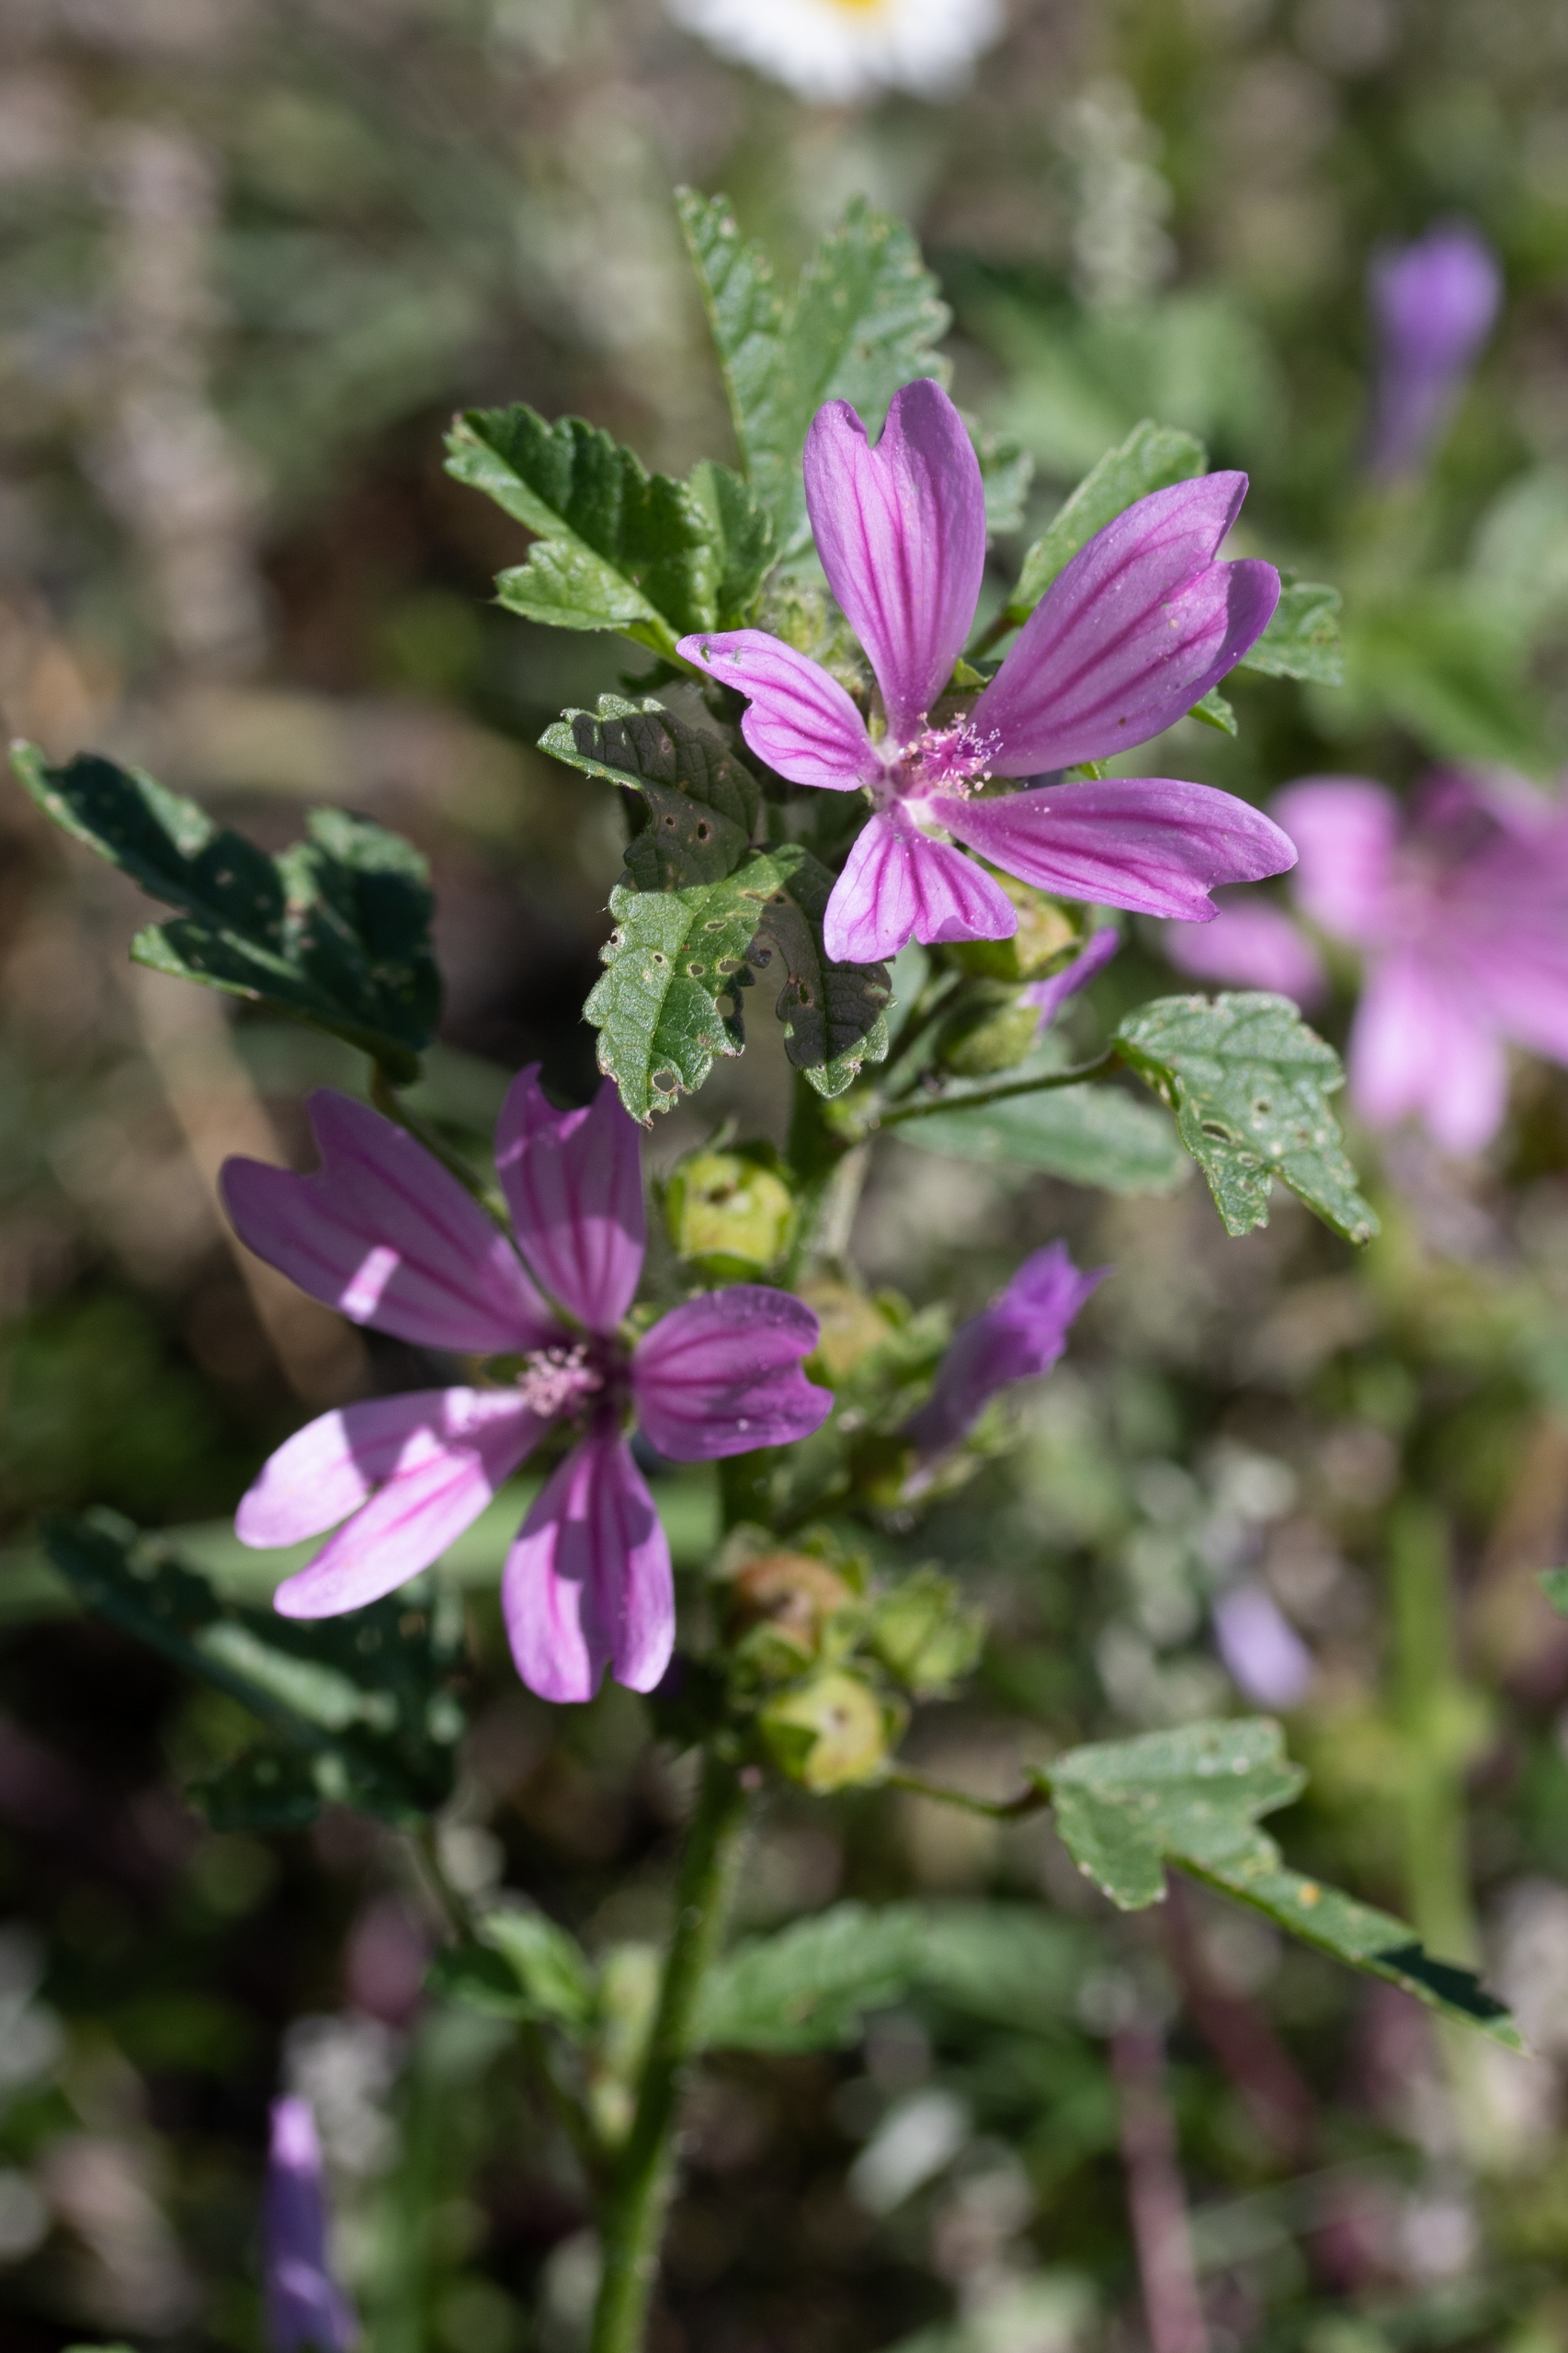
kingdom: Plantae
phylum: Tracheophyta
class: Magnoliopsida
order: Malvales
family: Malvaceae
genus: Malva
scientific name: Malva sylvestris
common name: Almindelig katost
